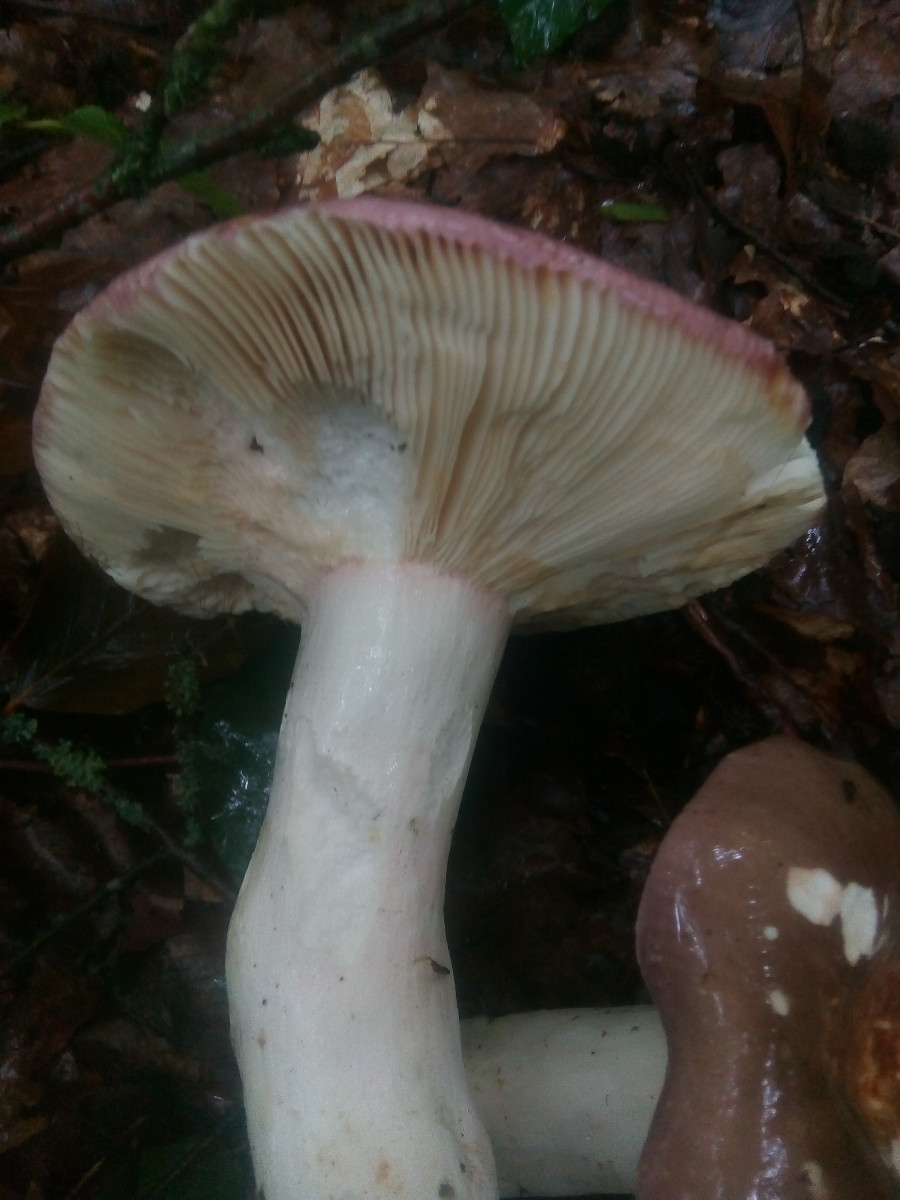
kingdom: Fungi
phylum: Basidiomycota
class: Agaricomycetes
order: Russulales
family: Russulaceae
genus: Russula
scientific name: Russula olivacea
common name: stor skørhat
